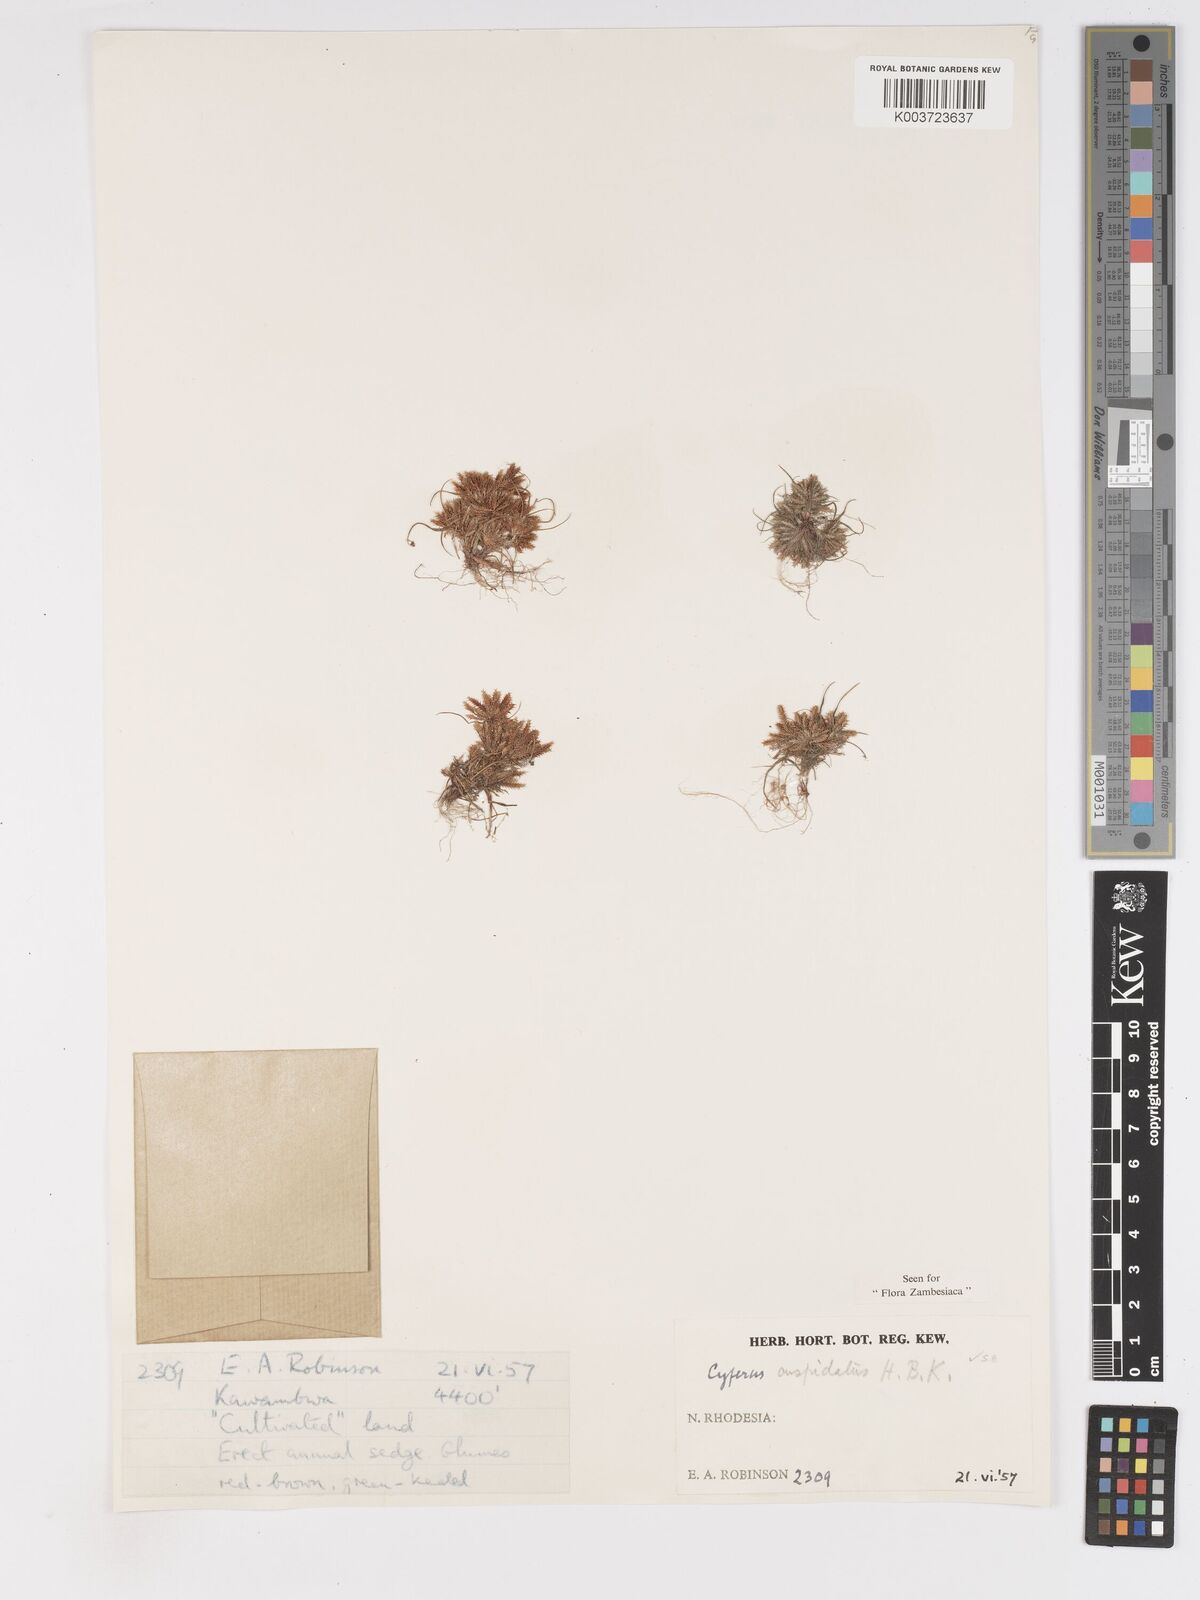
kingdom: Plantae
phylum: Tracheophyta
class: Liliopsida
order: Poales
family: Cyperaceae
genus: Cyperus
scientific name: Cyperus betafensis
